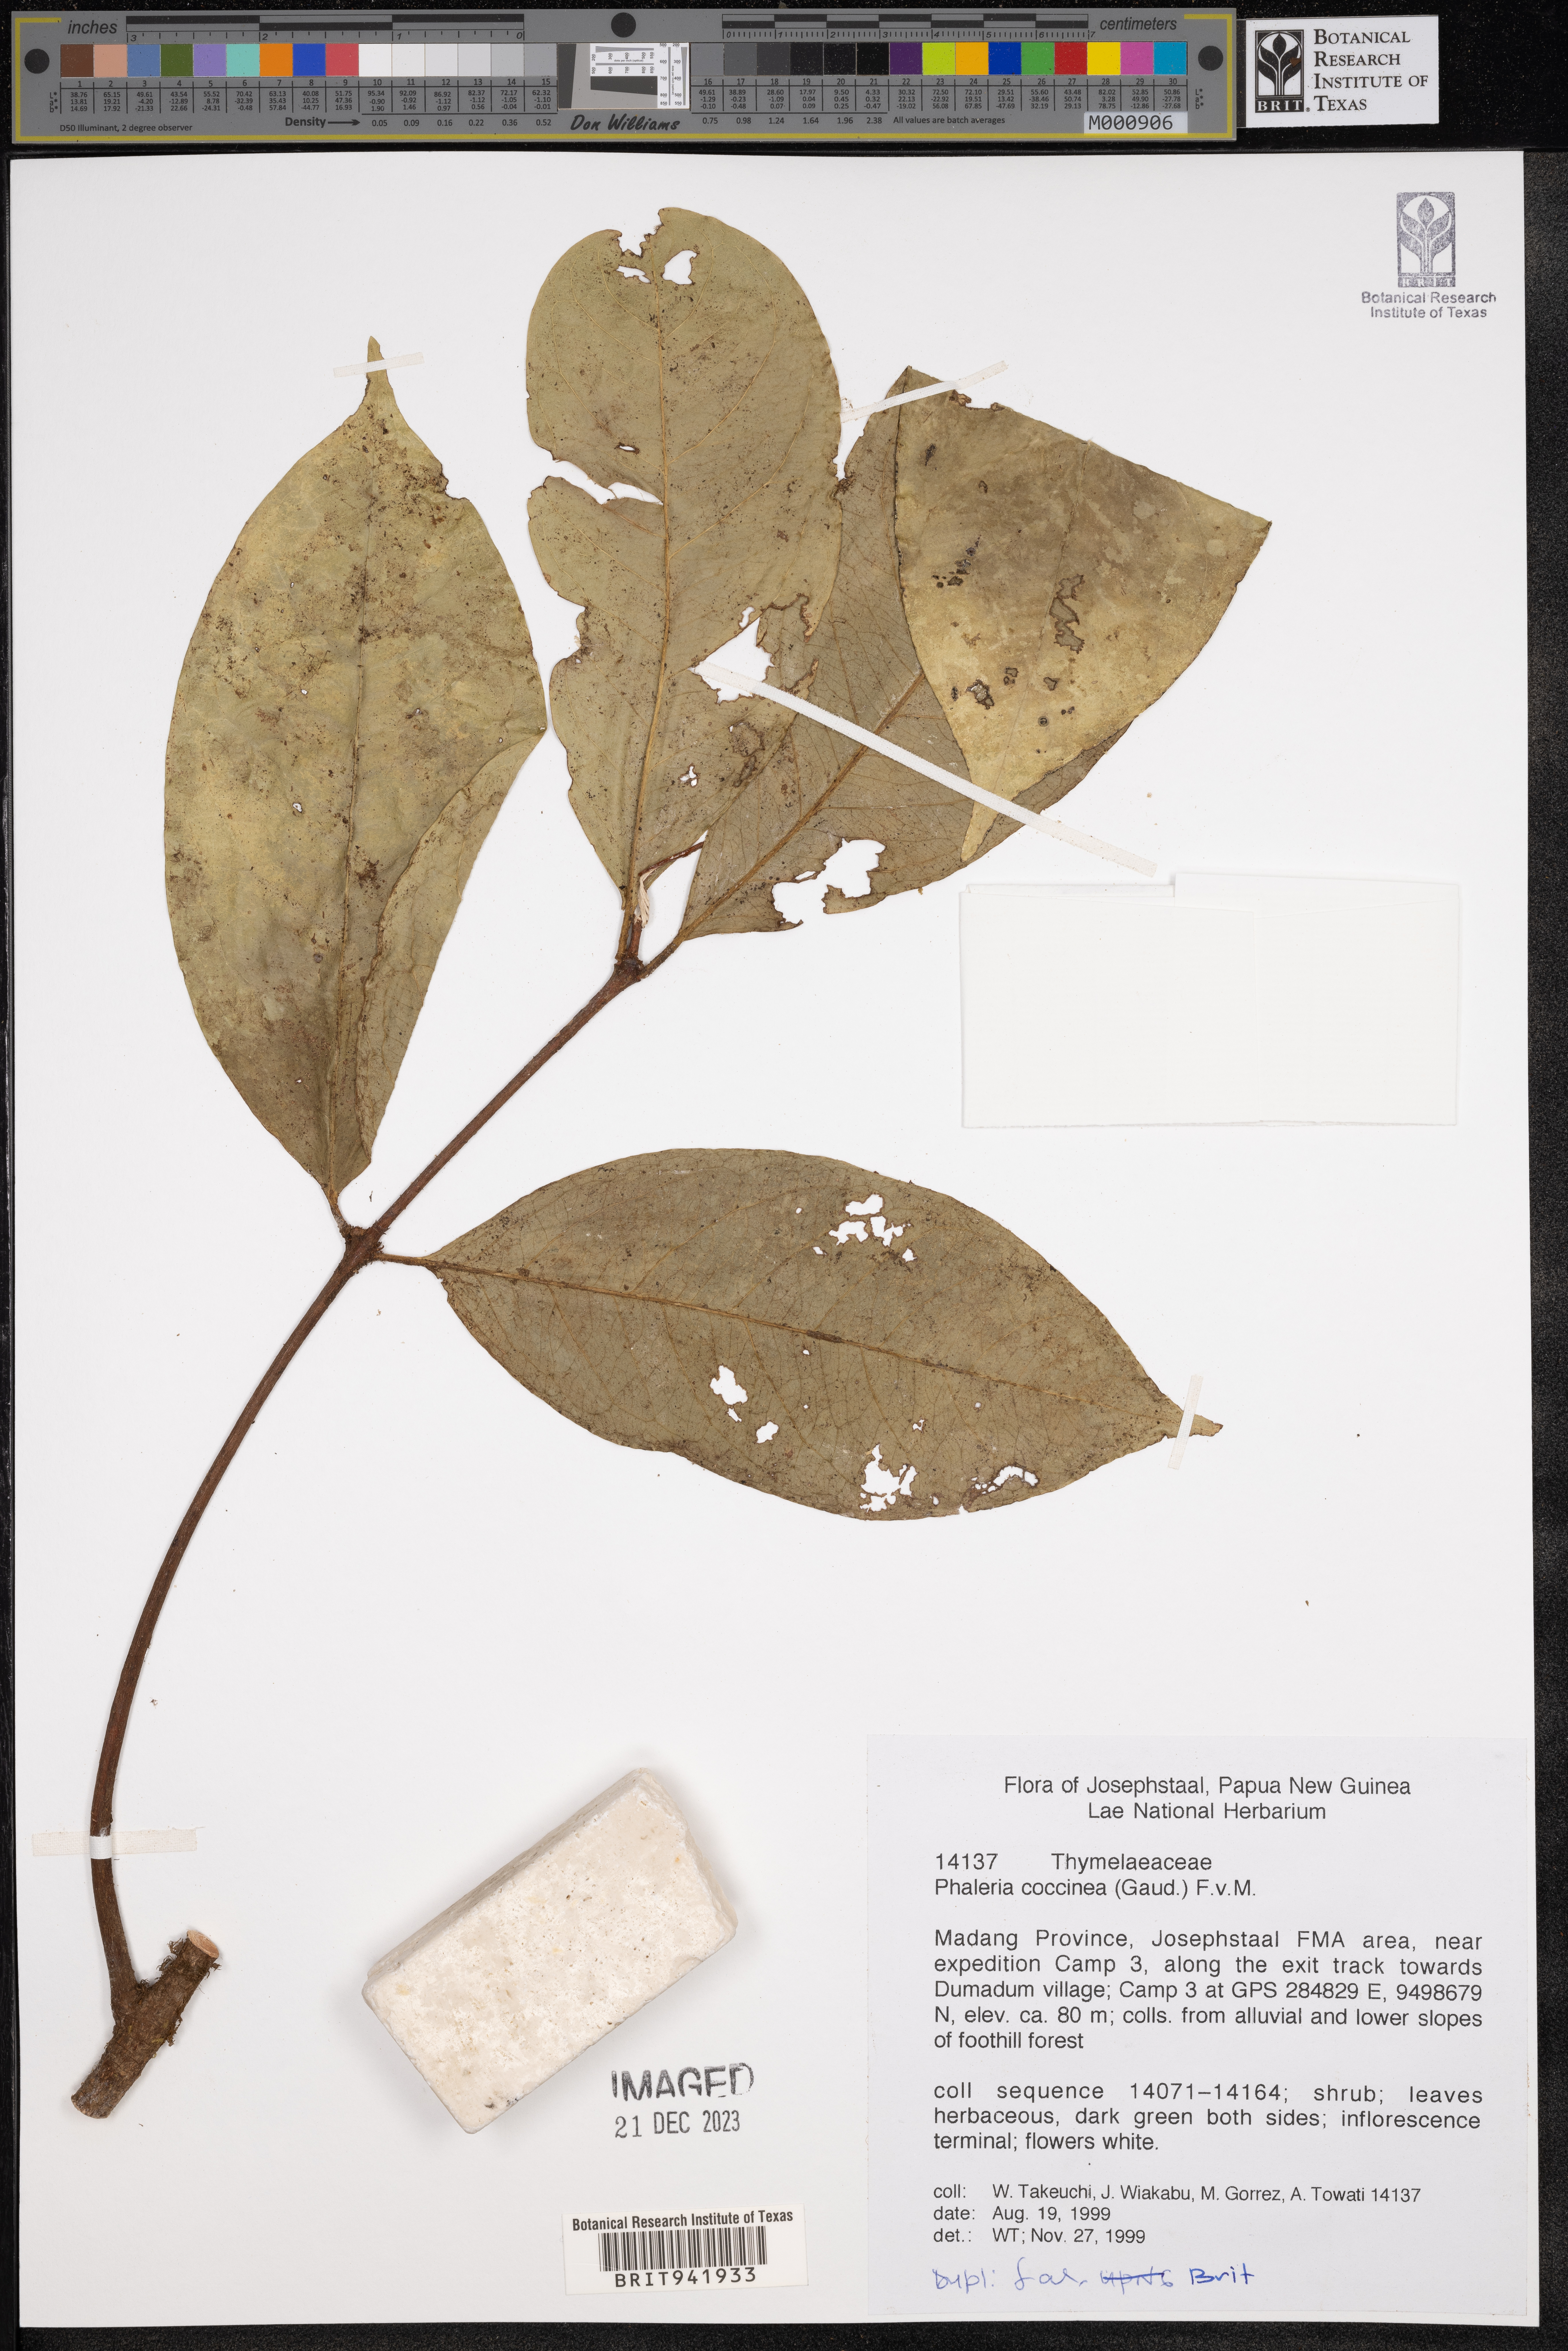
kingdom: Plantae
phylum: Tracheophyta
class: Magnoliopsida
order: Malvales
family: Thymelaeaceae
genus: Phaleria
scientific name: Phaleria
